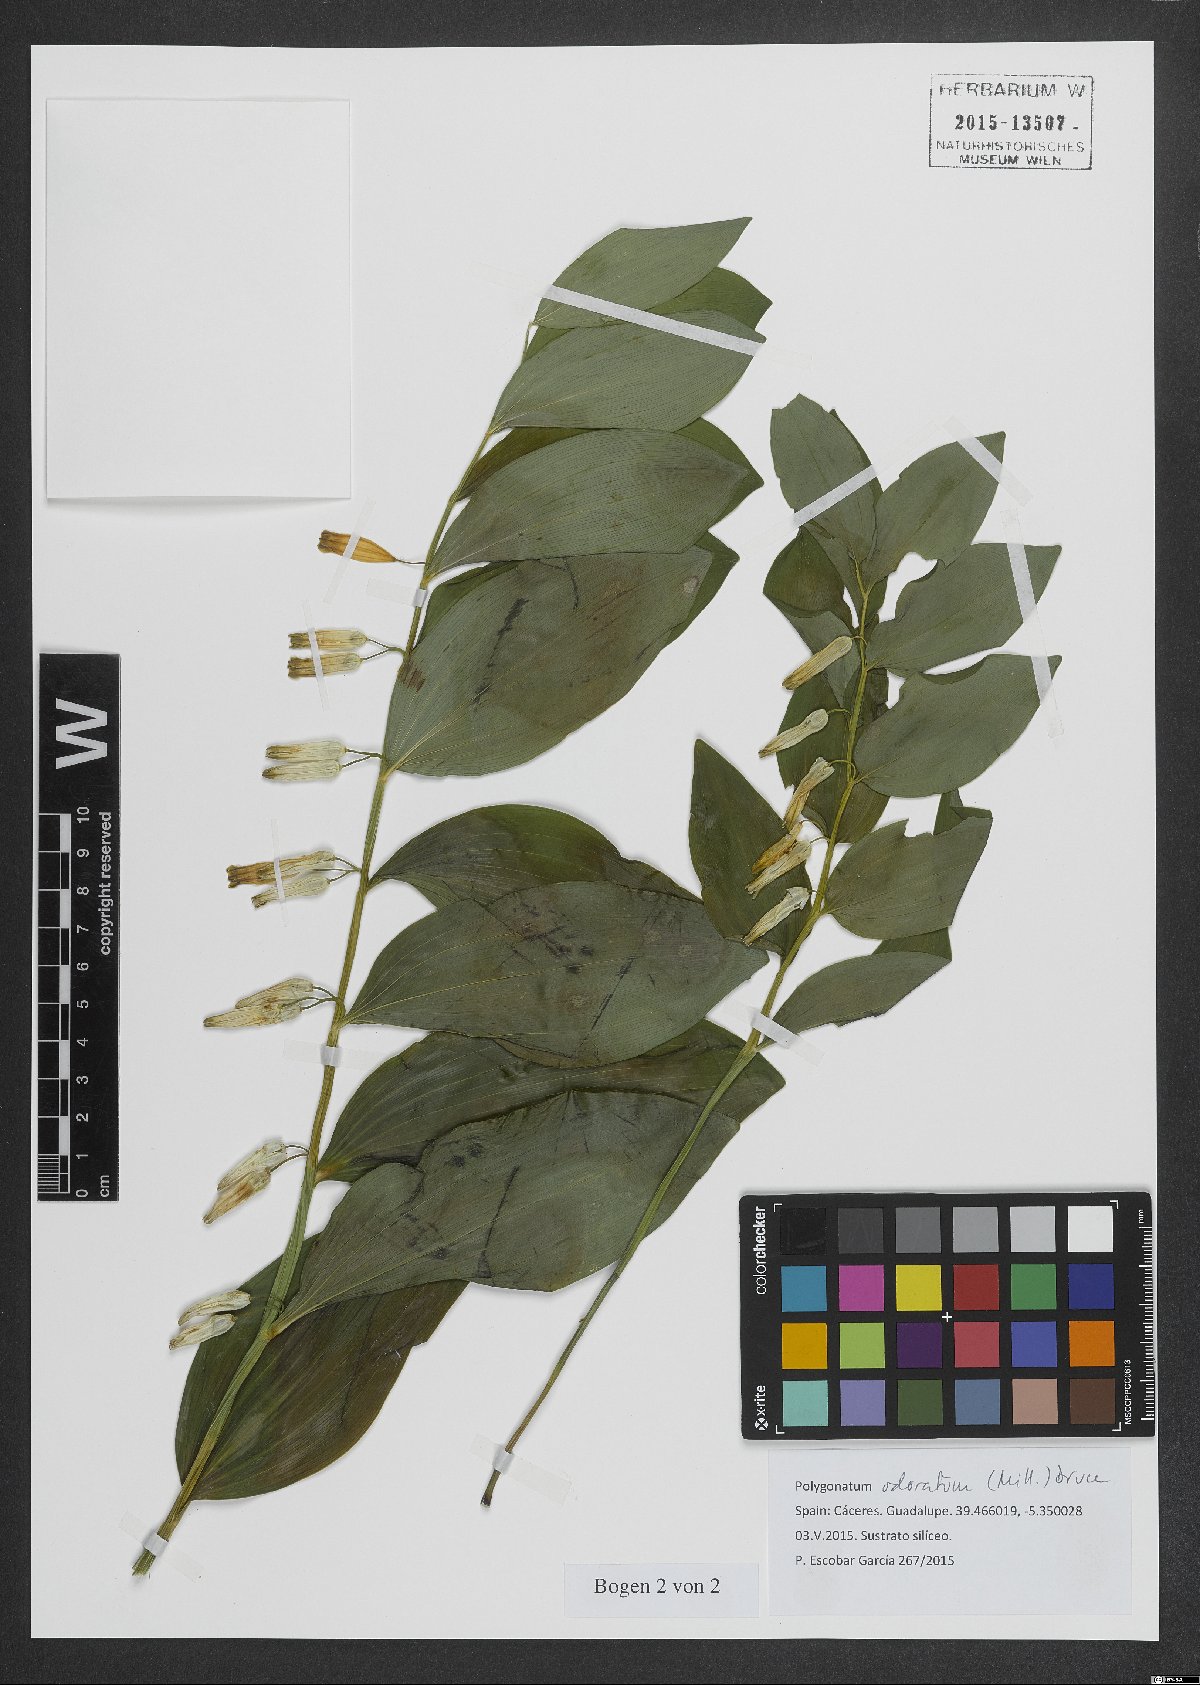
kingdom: Plantae
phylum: Tracheophyta
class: Liliopsida
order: Asparagales
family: Asparagaceae
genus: Polygonatum
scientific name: Polygonatum odoratum
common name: Angular solomon's-seal
